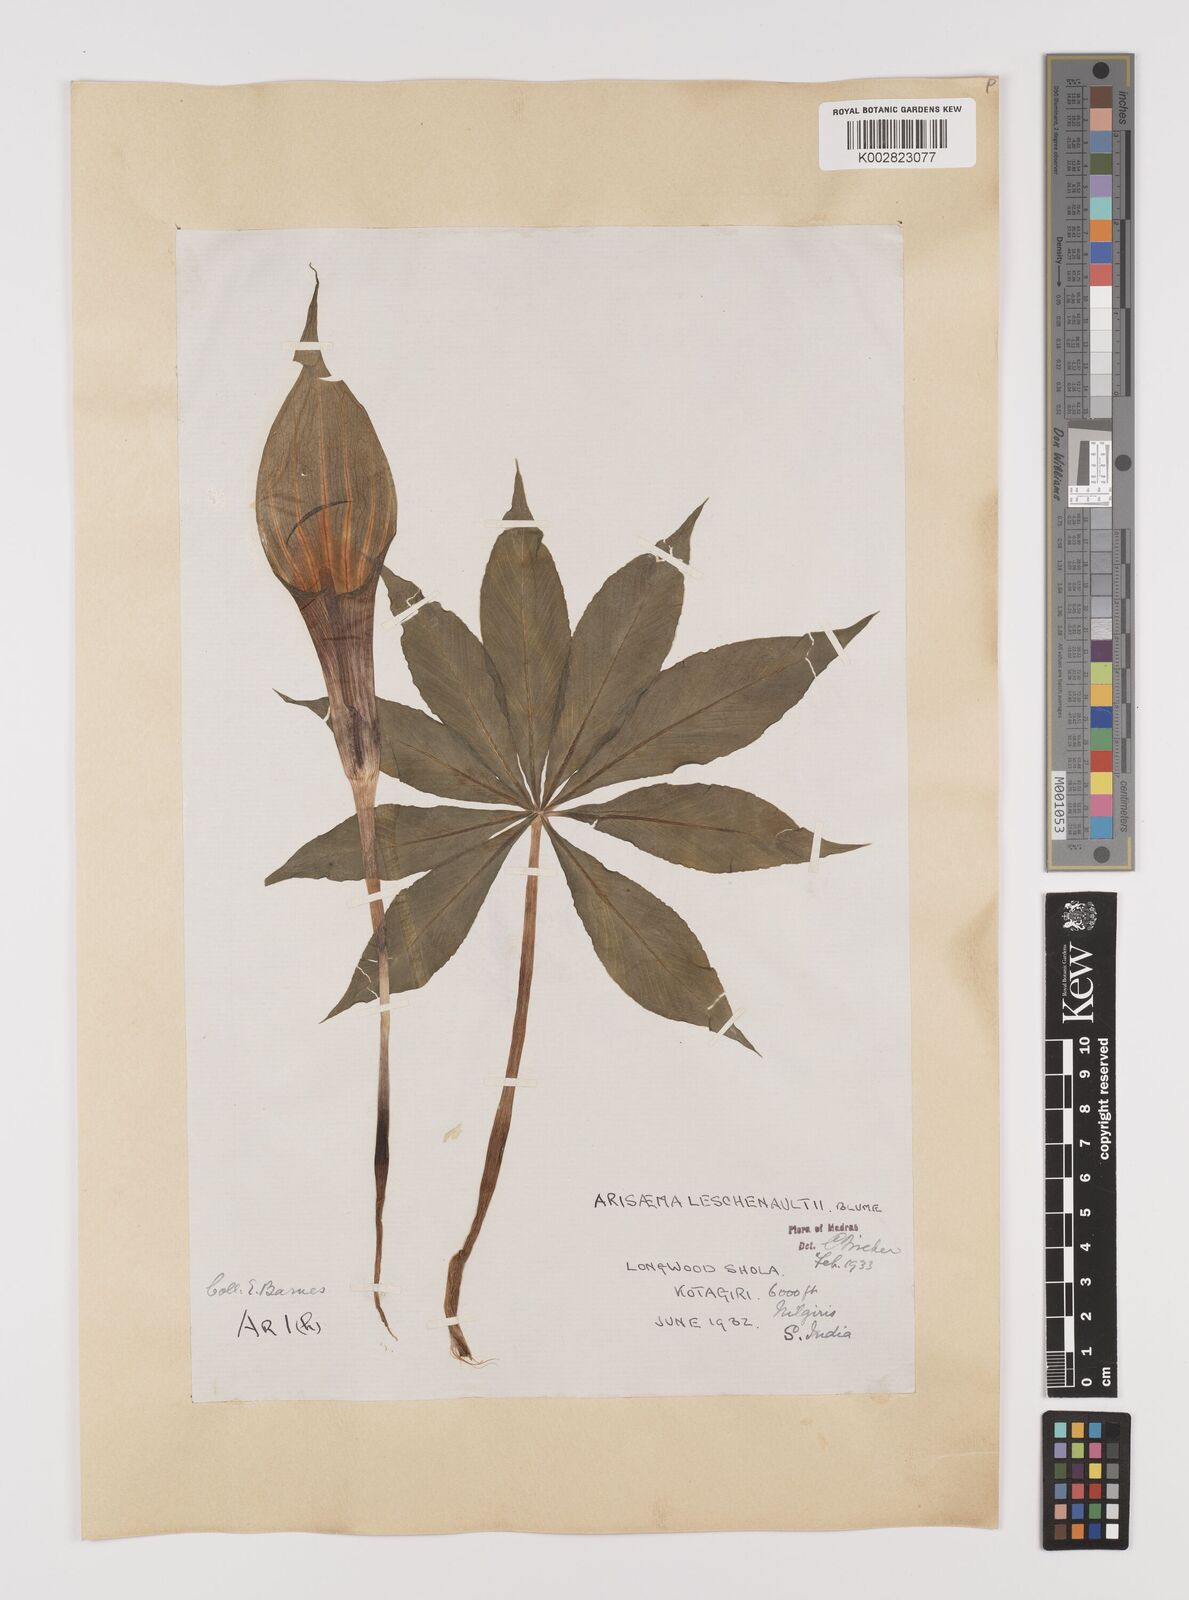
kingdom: Plantae
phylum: Tracheophyta
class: Liliopsida
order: Alismatales
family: Araceae
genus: Arisaema
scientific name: Arisaema leschenaultii
